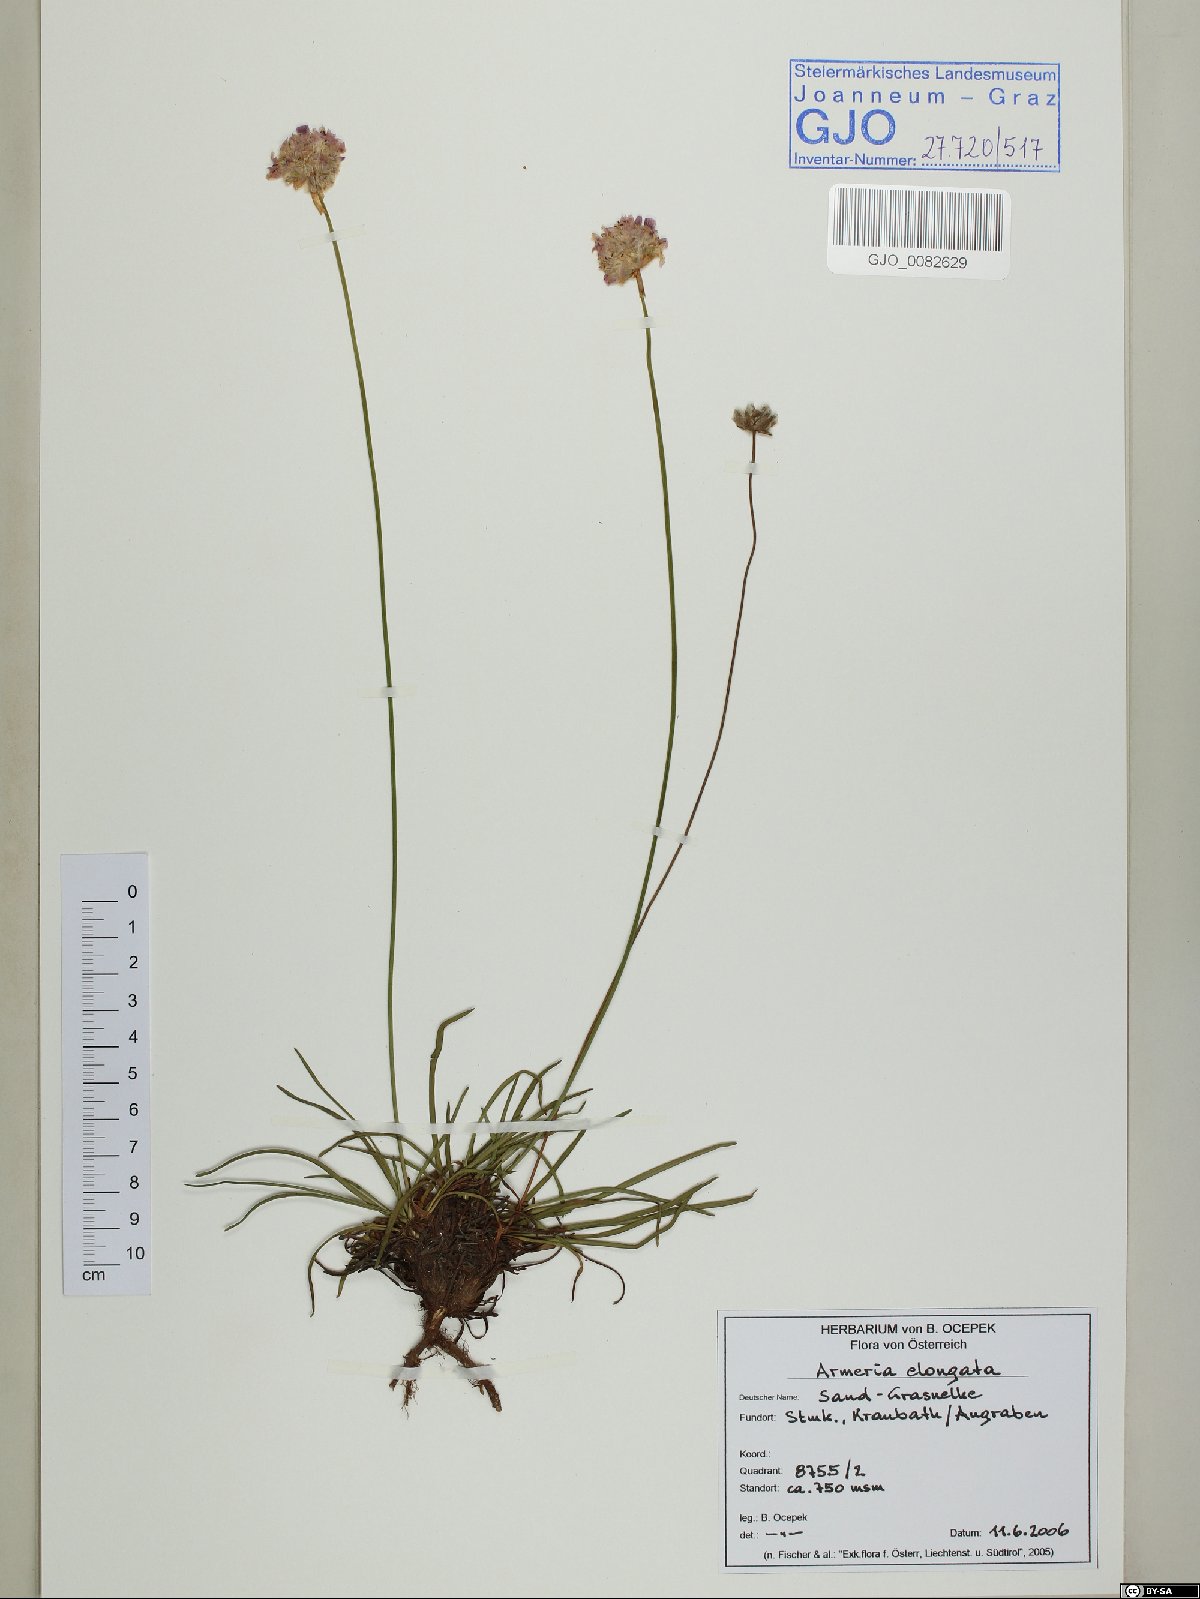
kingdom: Plantae
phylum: Tracheophyta
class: Magnoliopsida
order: Caryophyllales
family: Plumbaginaceae
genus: Armeria
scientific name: Armeria maritima
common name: Thrift
